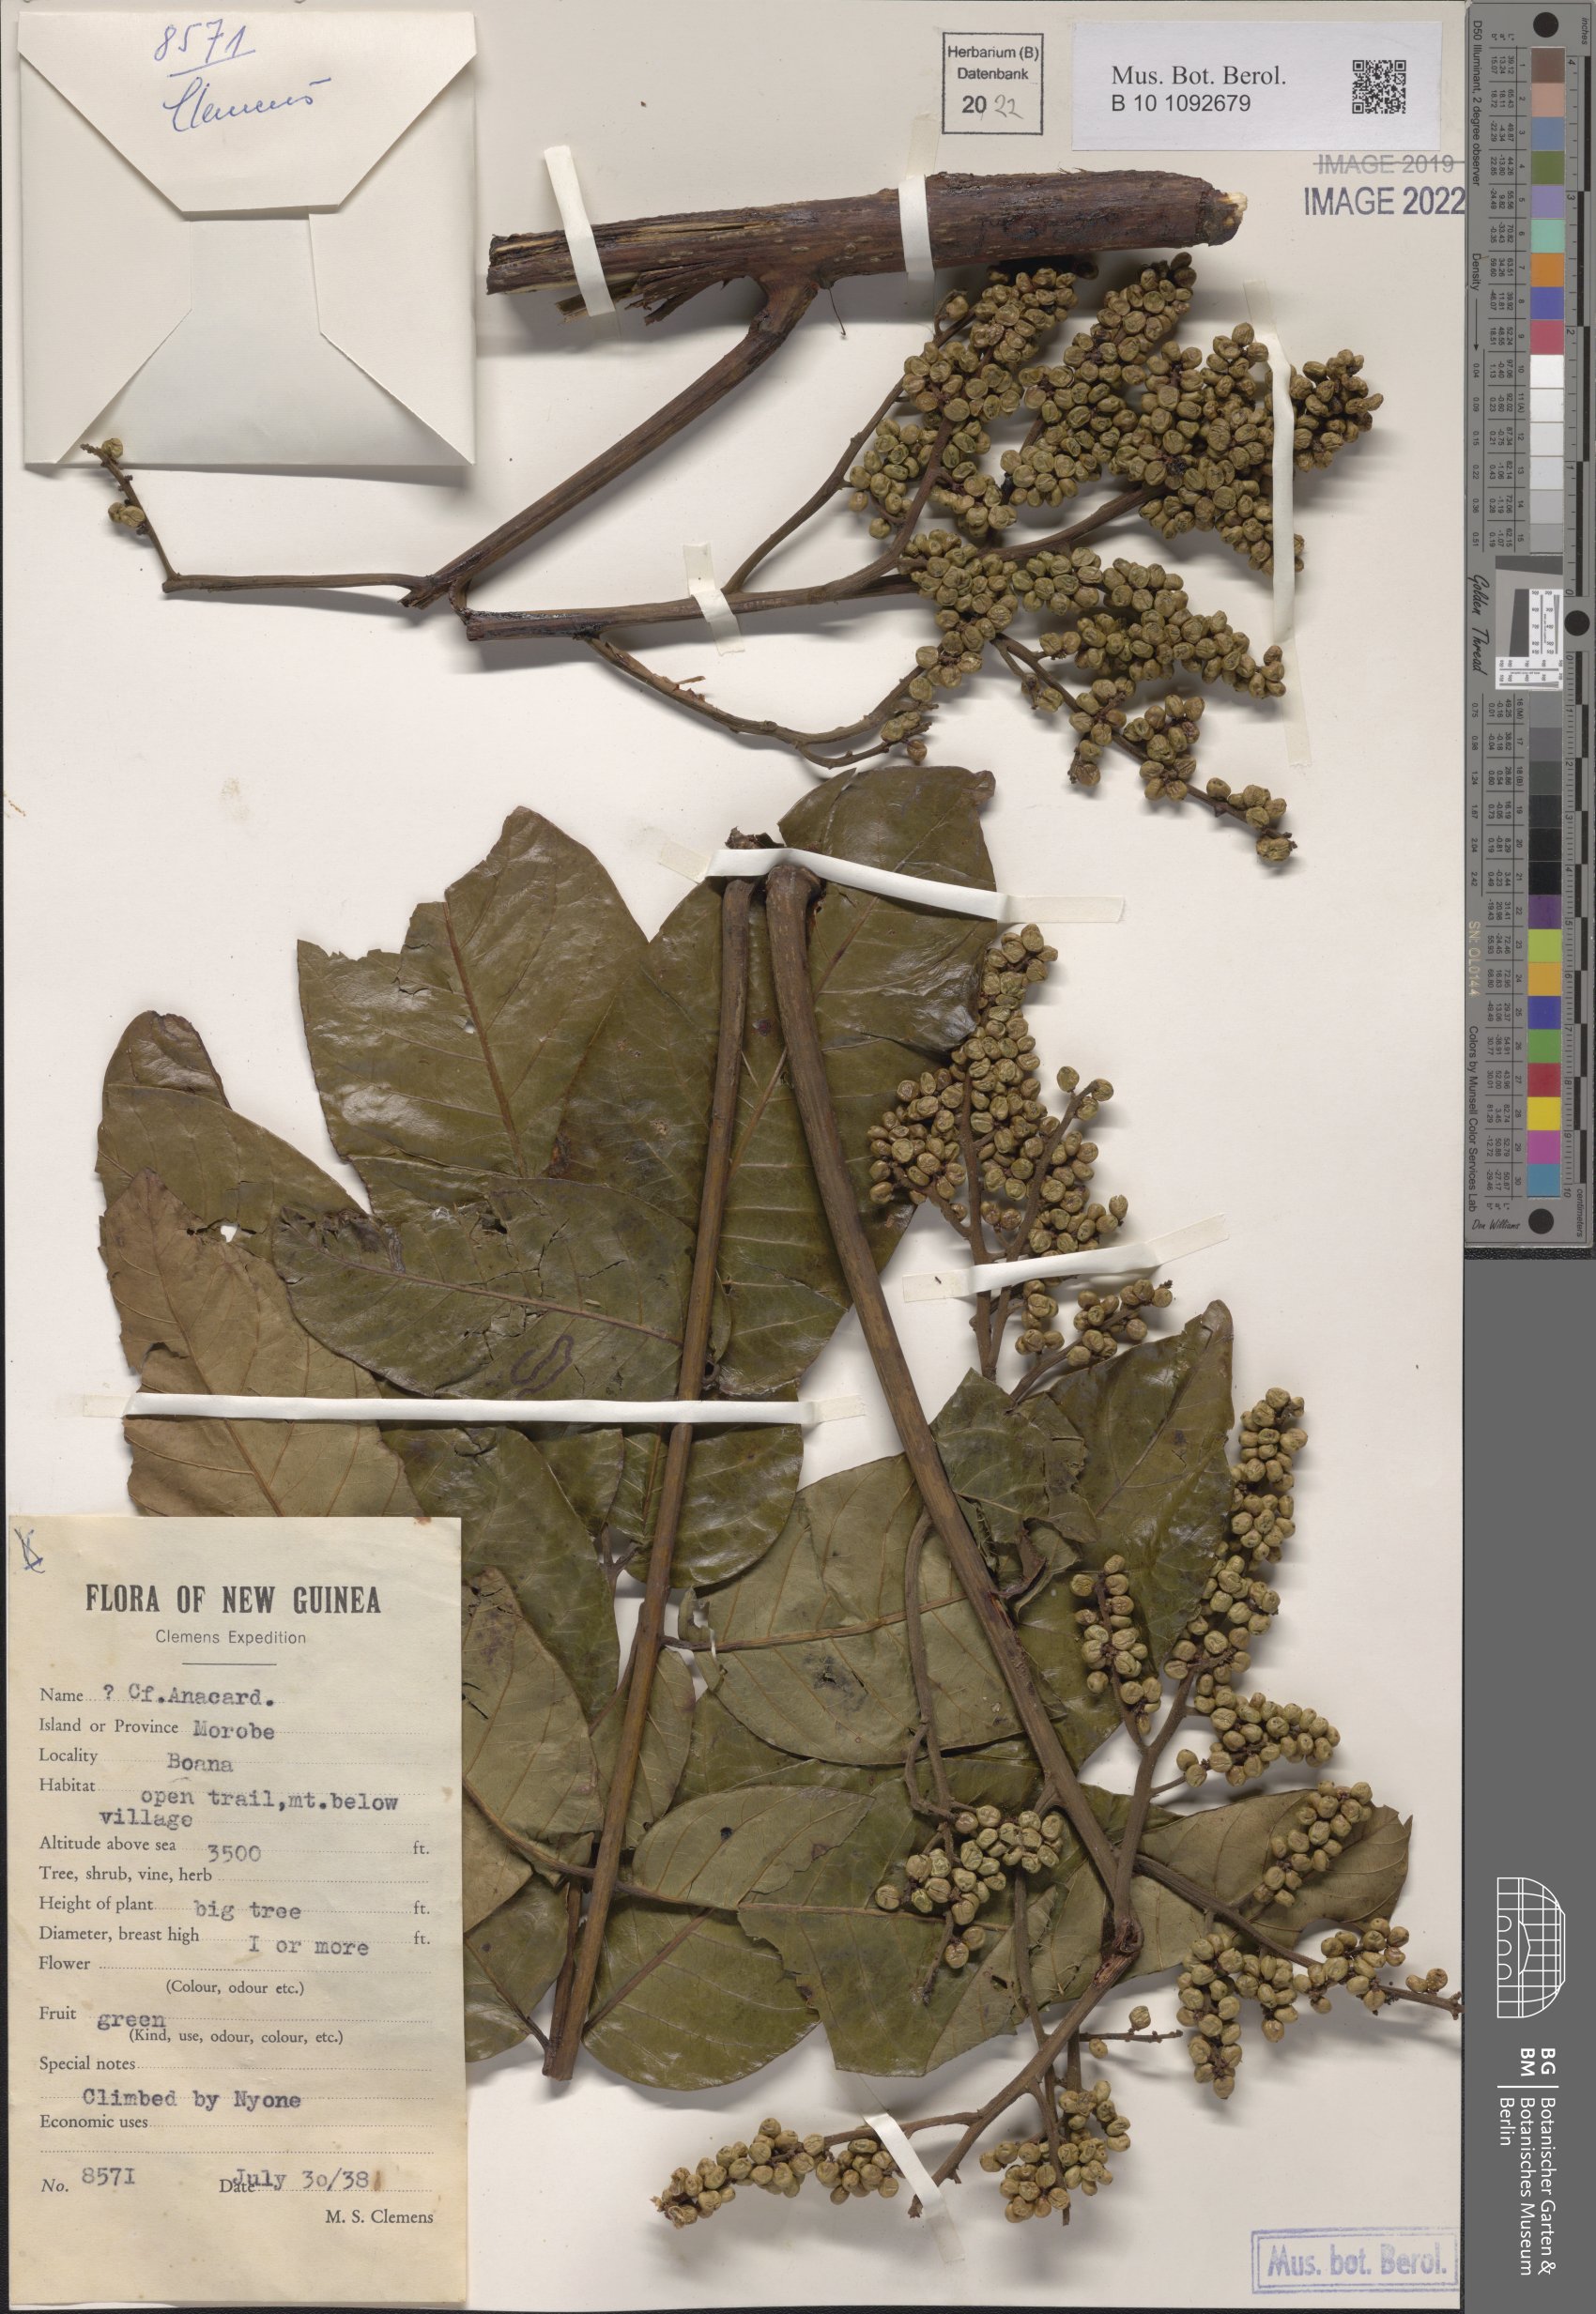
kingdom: Plantae
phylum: Tracheophyta
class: Magnoliopsida
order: Sapindales
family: Anacardiaceae
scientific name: Anacardiaceae
